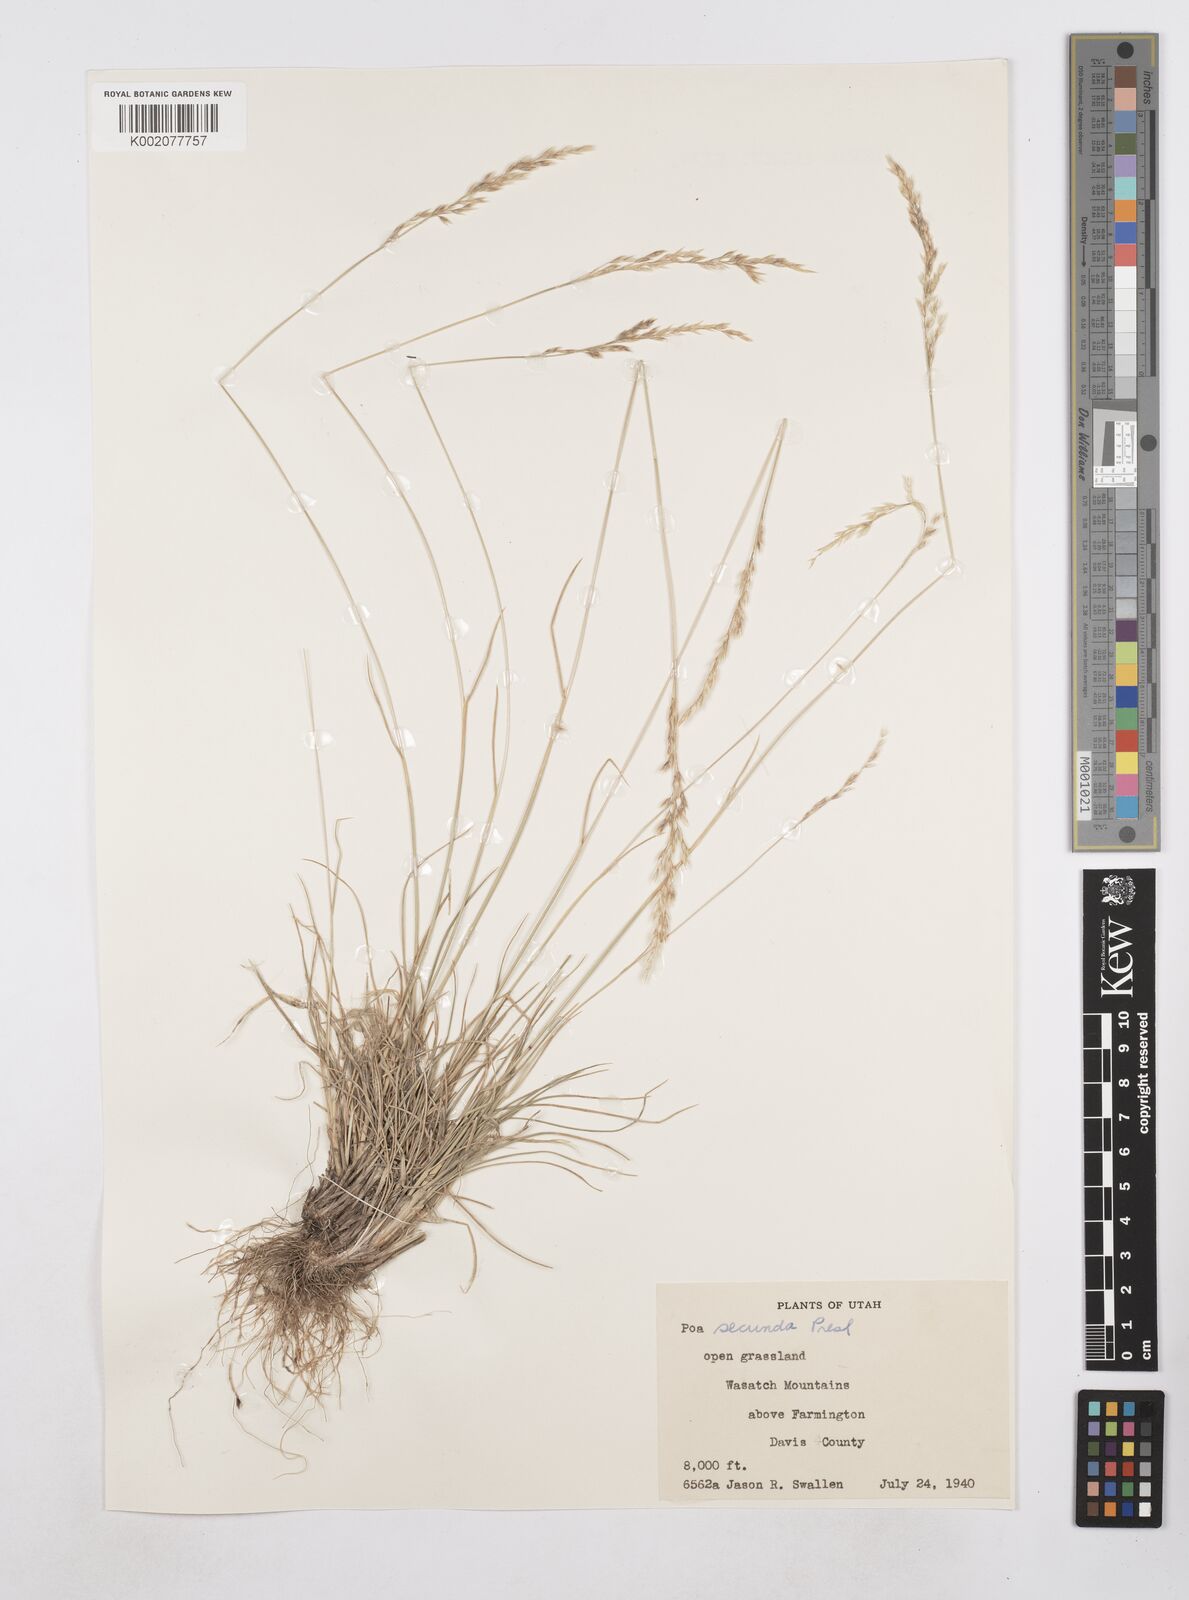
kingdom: Plantae
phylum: Tracheophyta
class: Liliopsida
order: Poales
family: Poaceae
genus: Poa
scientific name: Poa secunda
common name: Sandberg bluegrass
